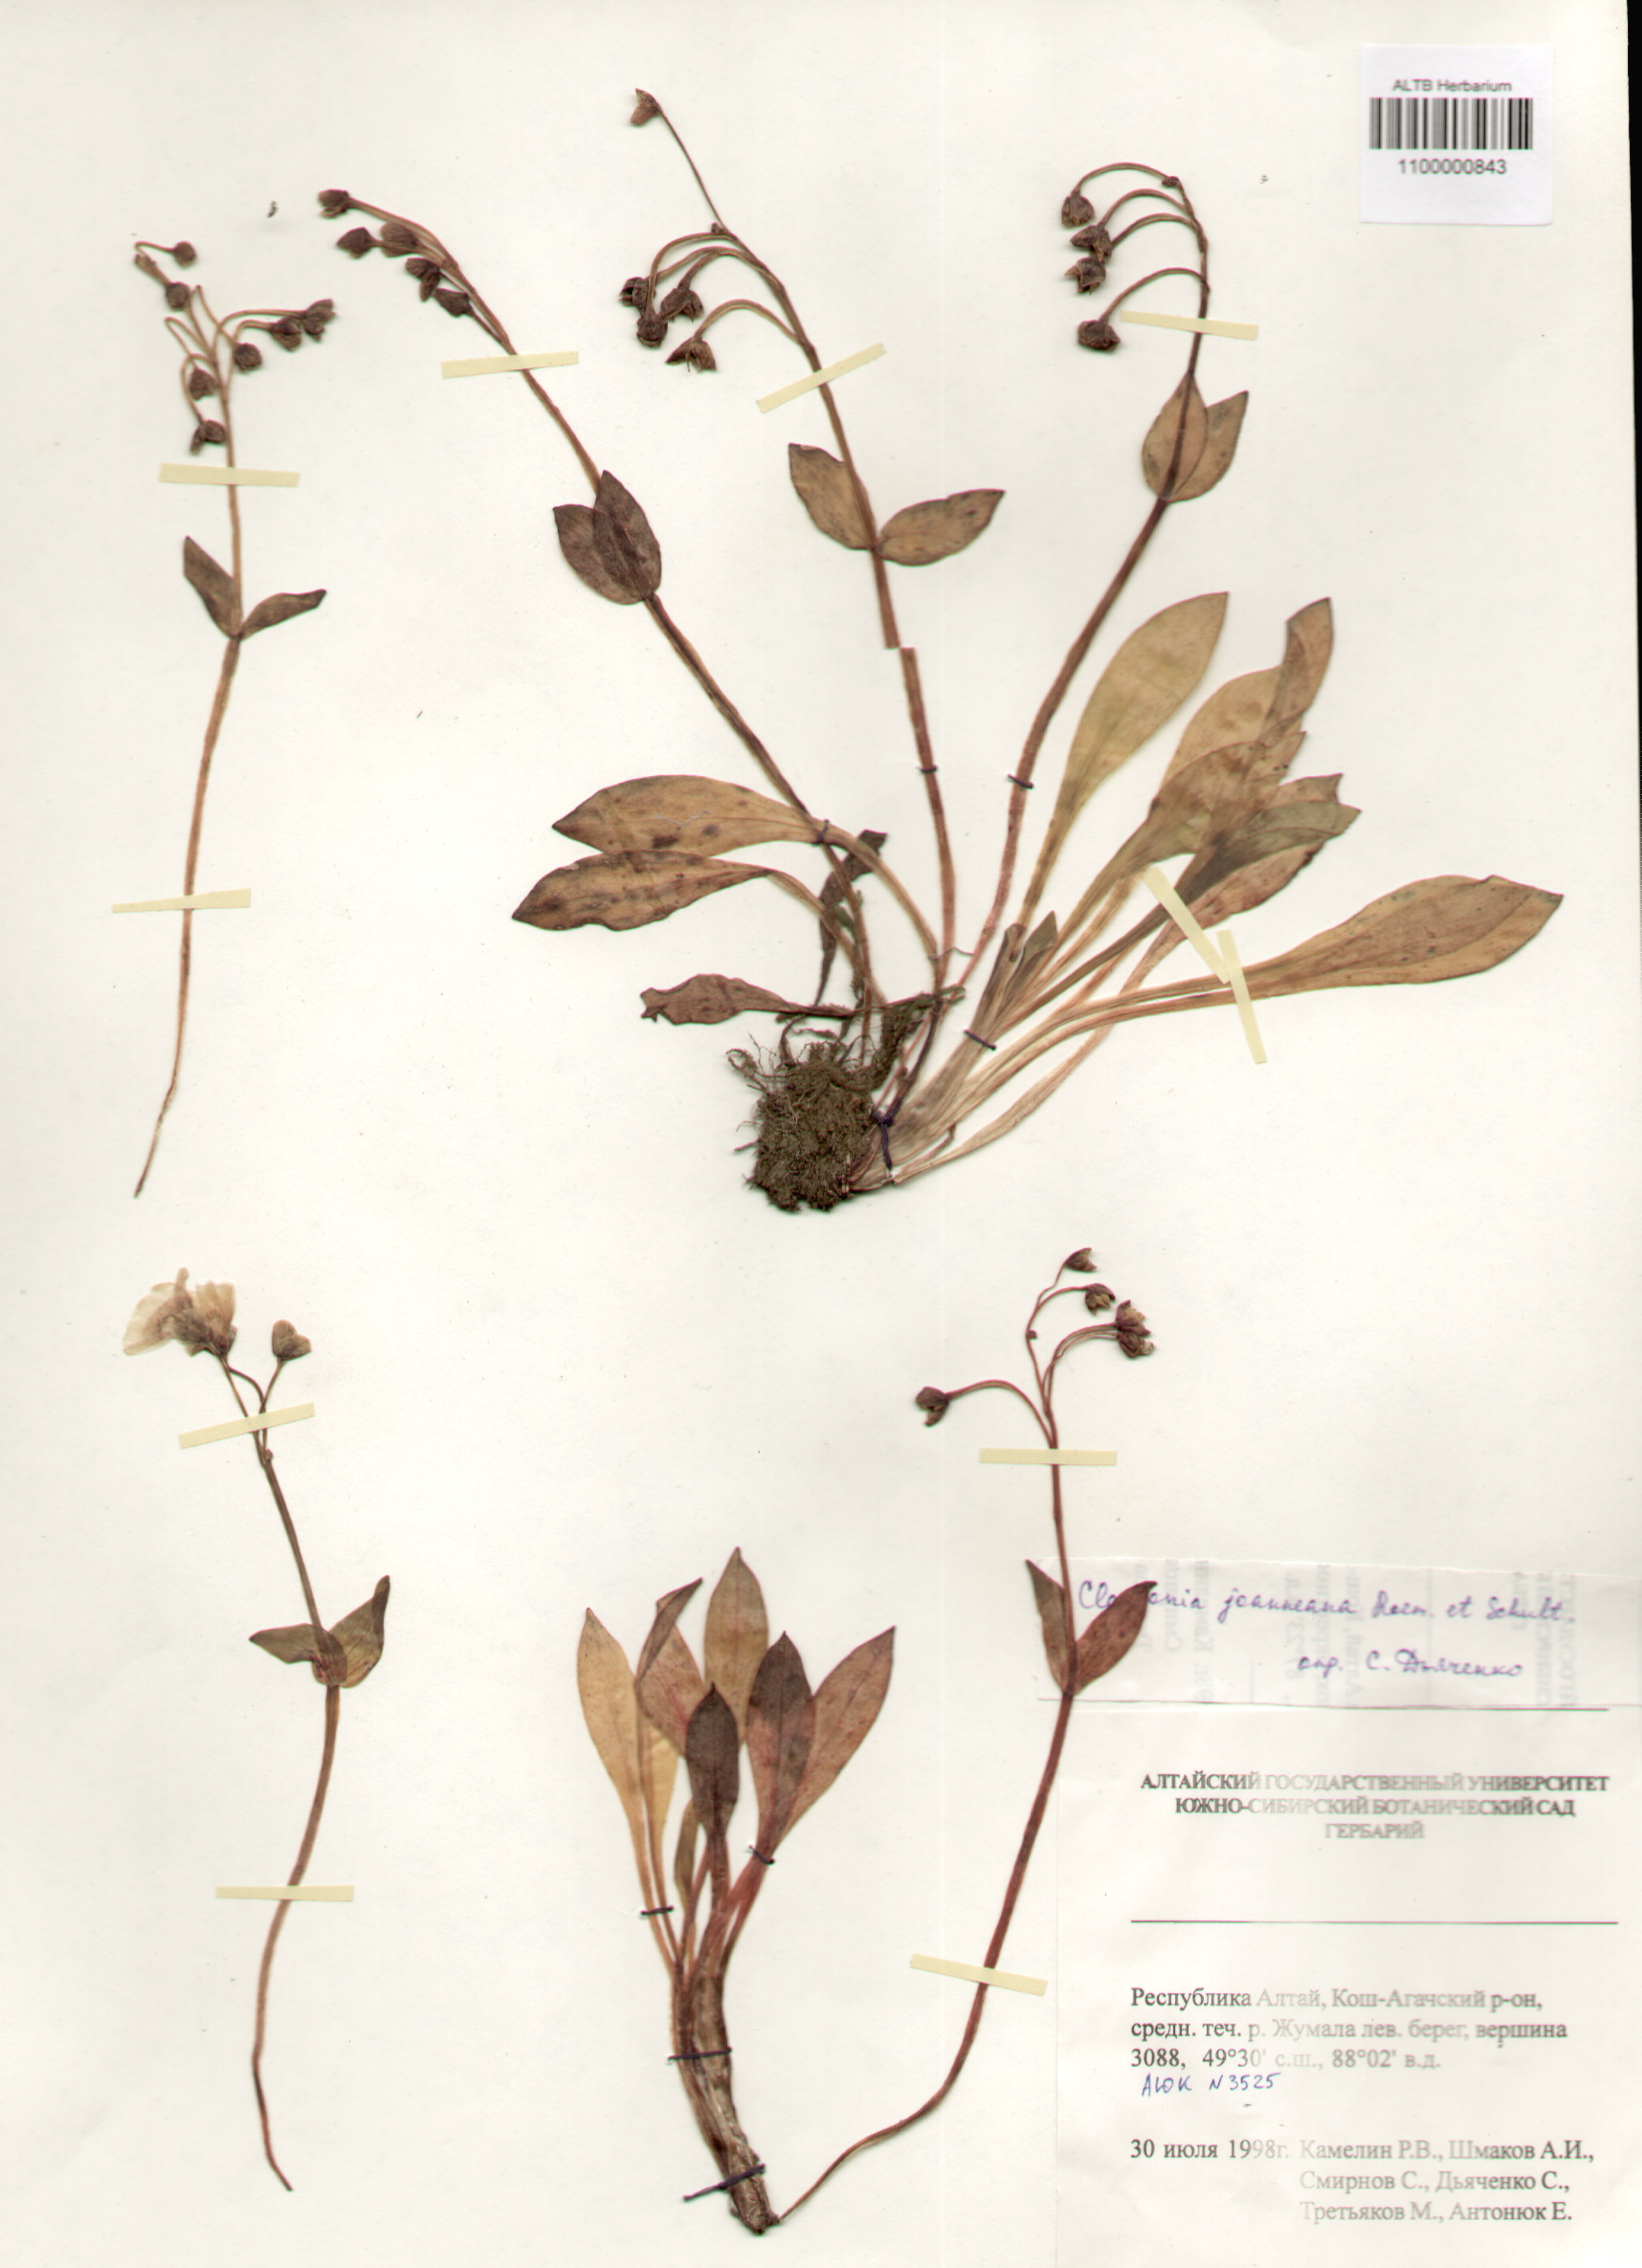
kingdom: Plantae
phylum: Tracheophyta
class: Magnoliopsida
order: Caryophyllales
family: Montiaceae
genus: Claytonia
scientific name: Claytonia joanneana
